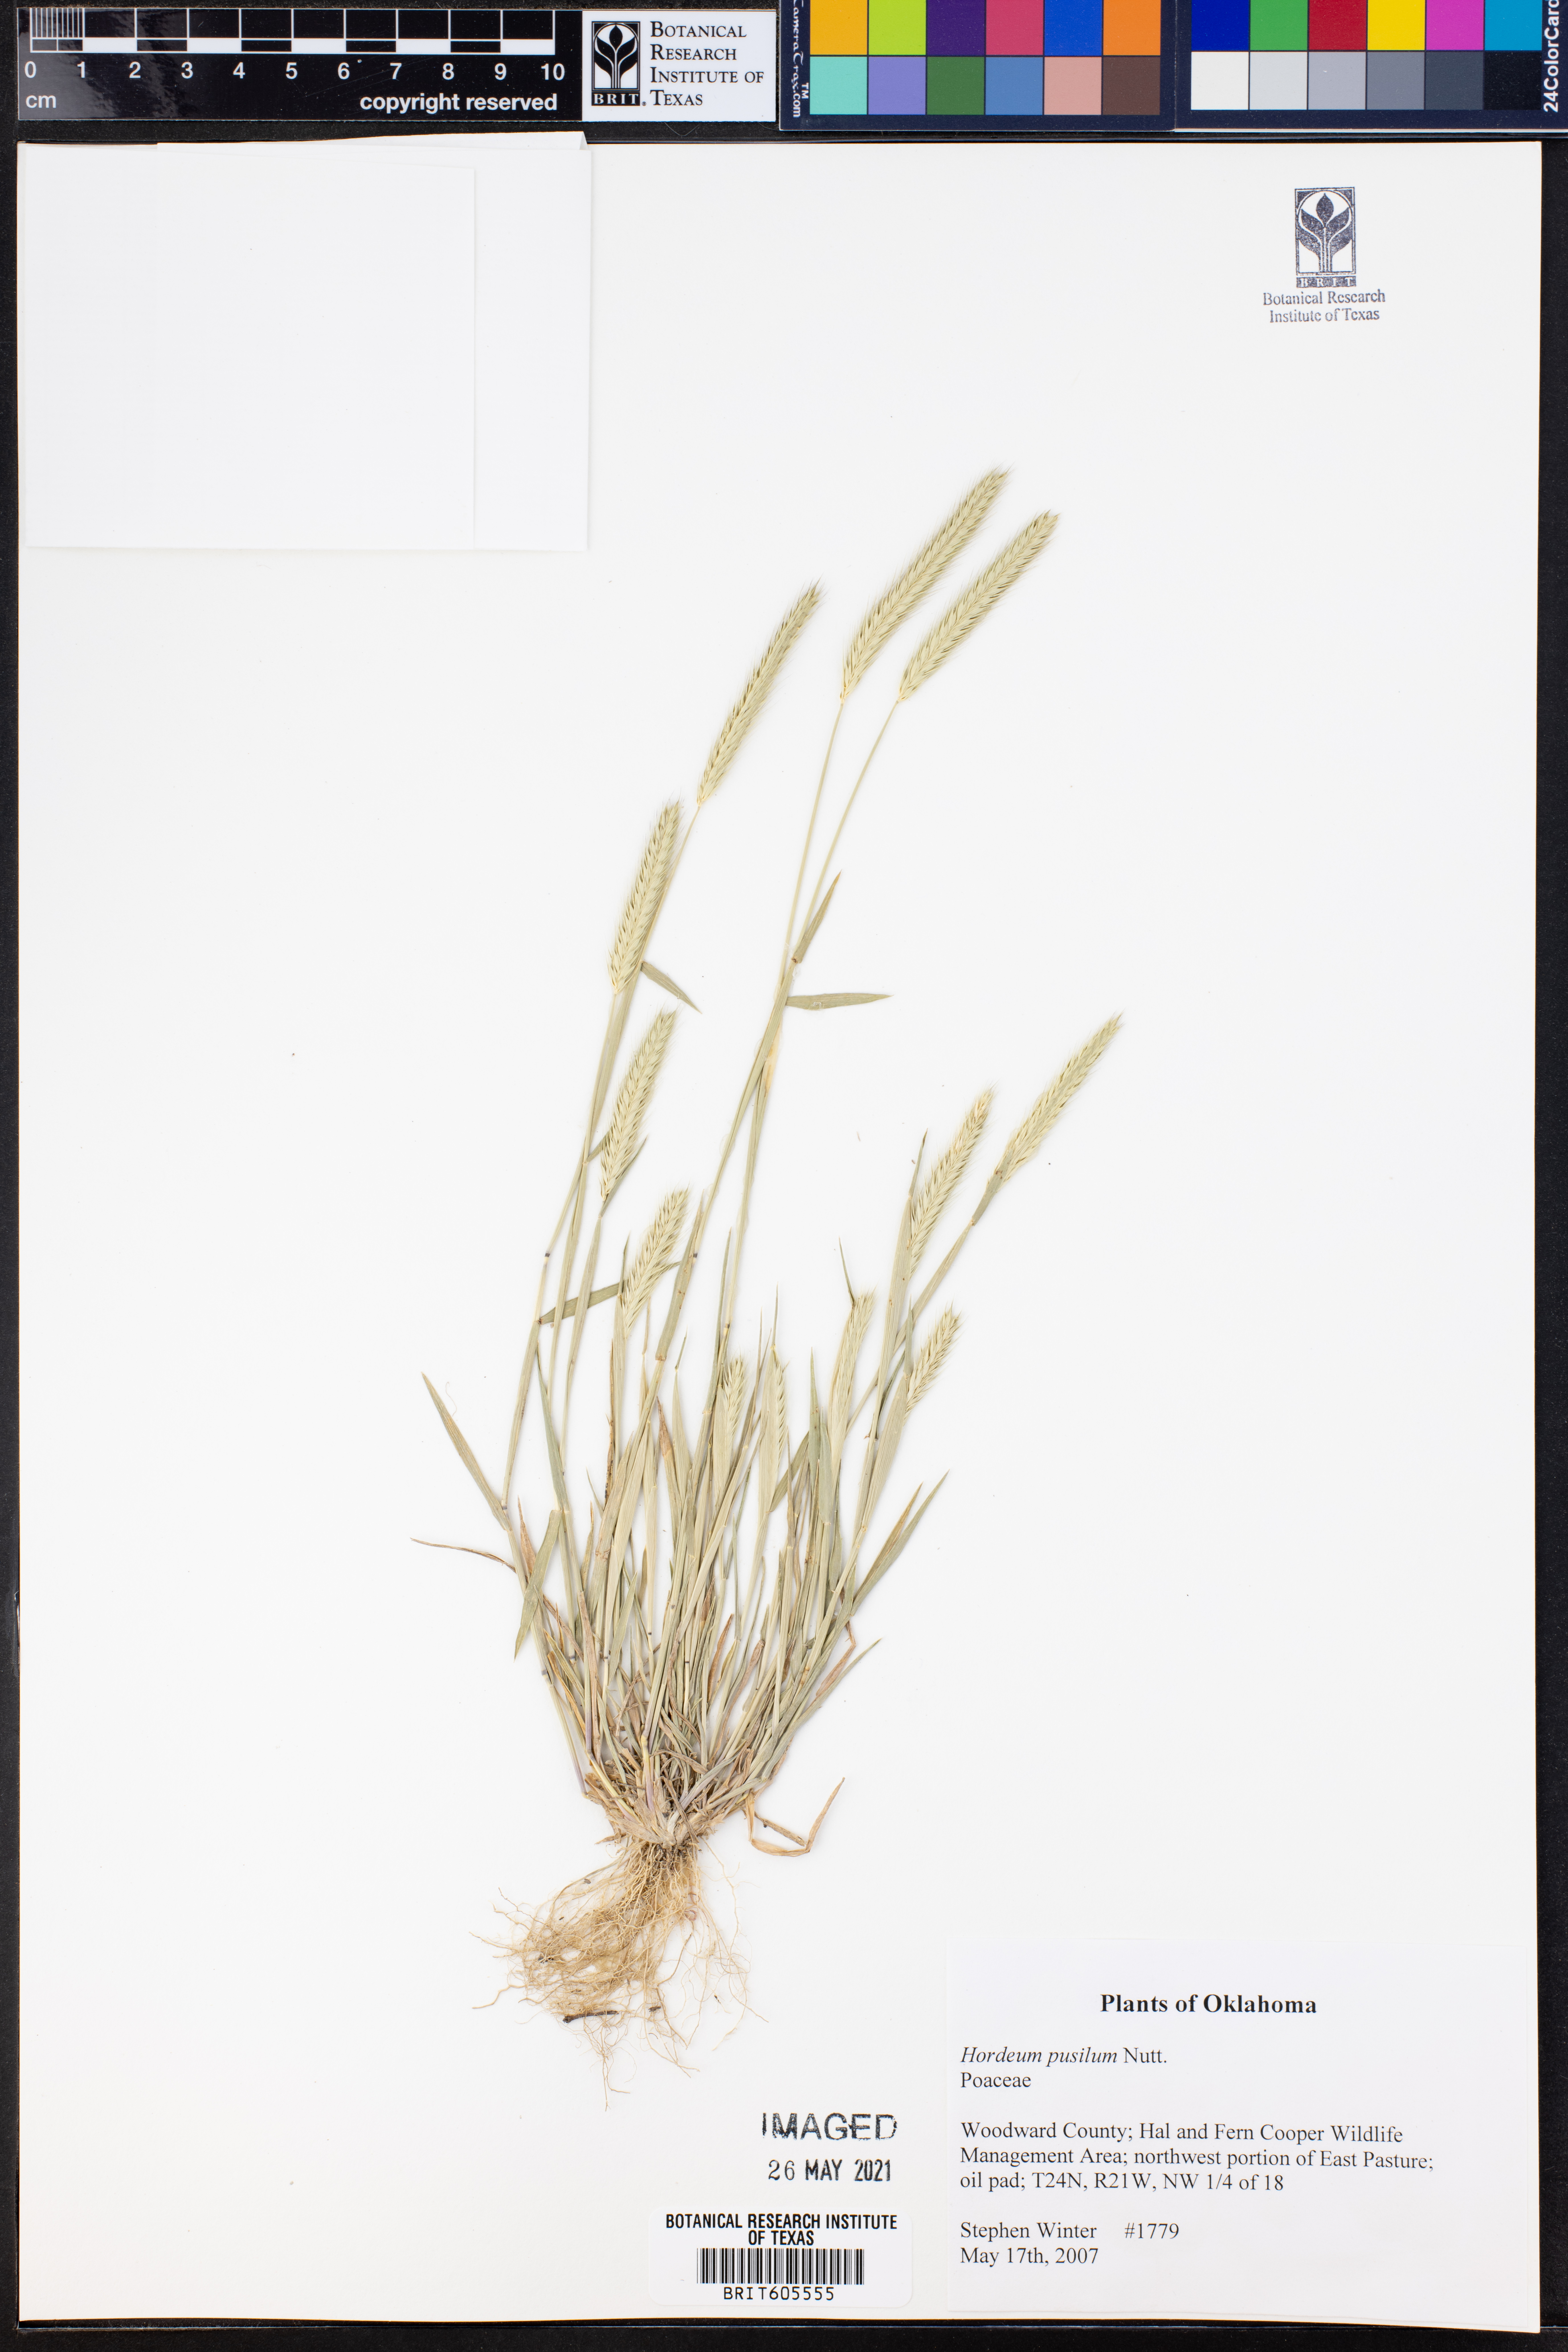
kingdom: Plantae
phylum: Tracheophyta
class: Liliopsida
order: Poales
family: Poaceae
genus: Hordeum
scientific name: Hordeum pusillum
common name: Little barley
